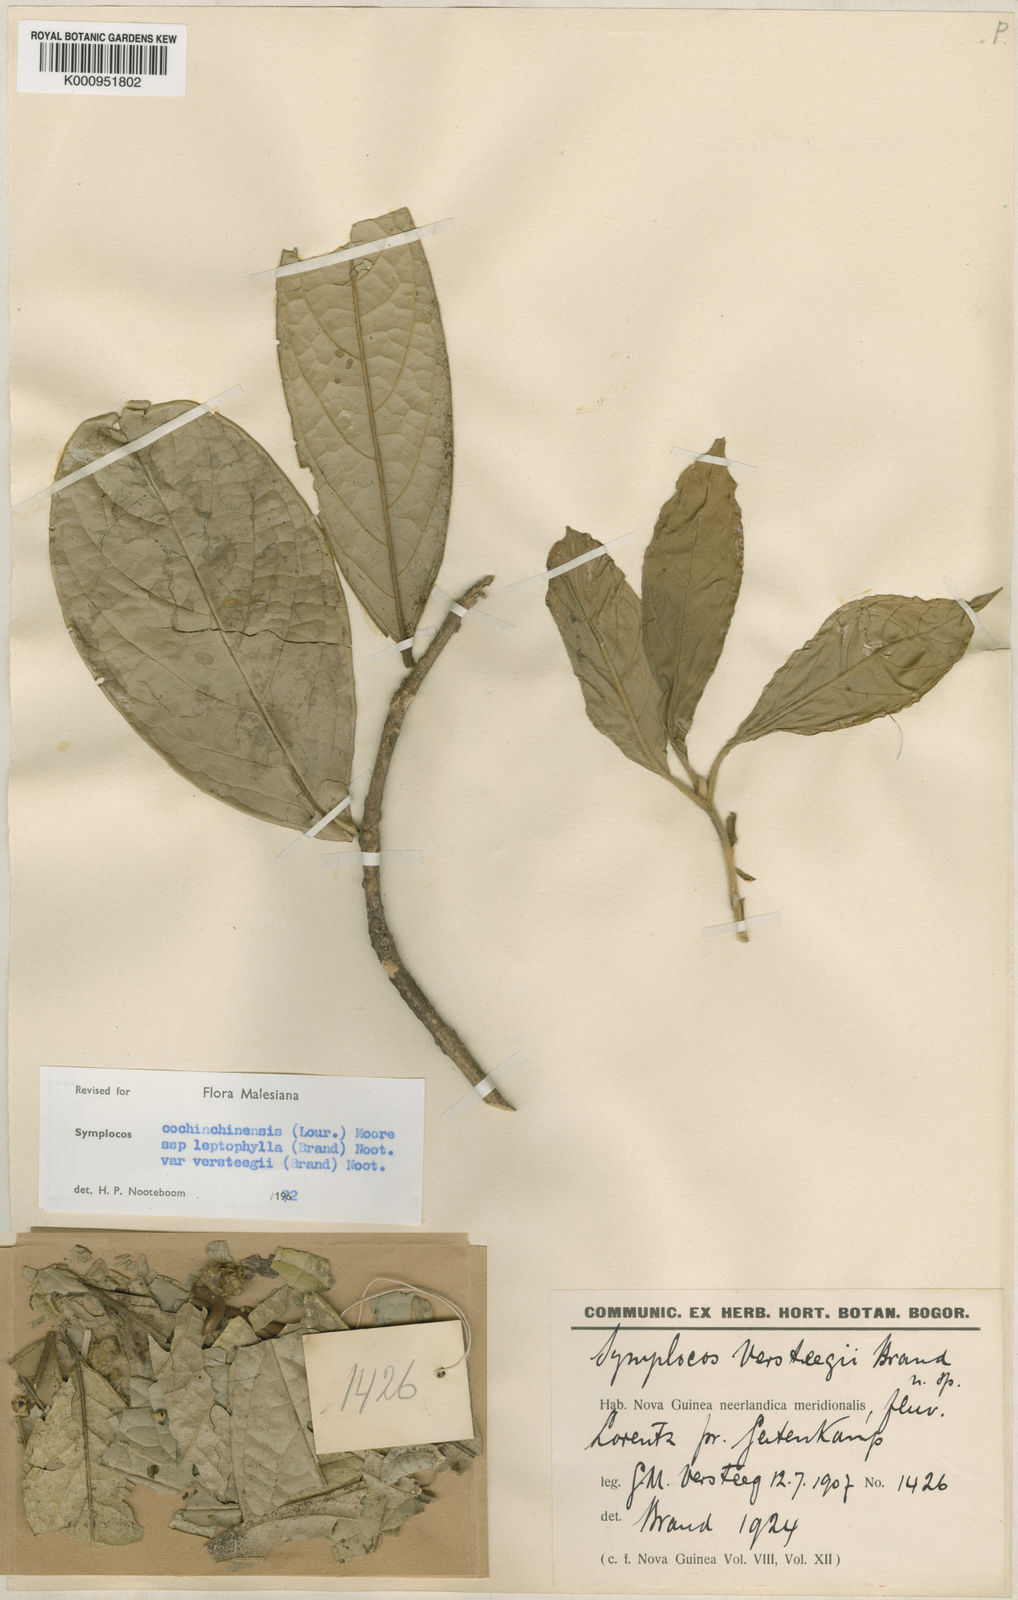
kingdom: Plantae
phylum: Tracheophyta
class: Magnoliopsida
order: Ericales
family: Symplocaceae
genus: Symplocos
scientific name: Symplocos cochinchinensis
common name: Buff hazelwood
